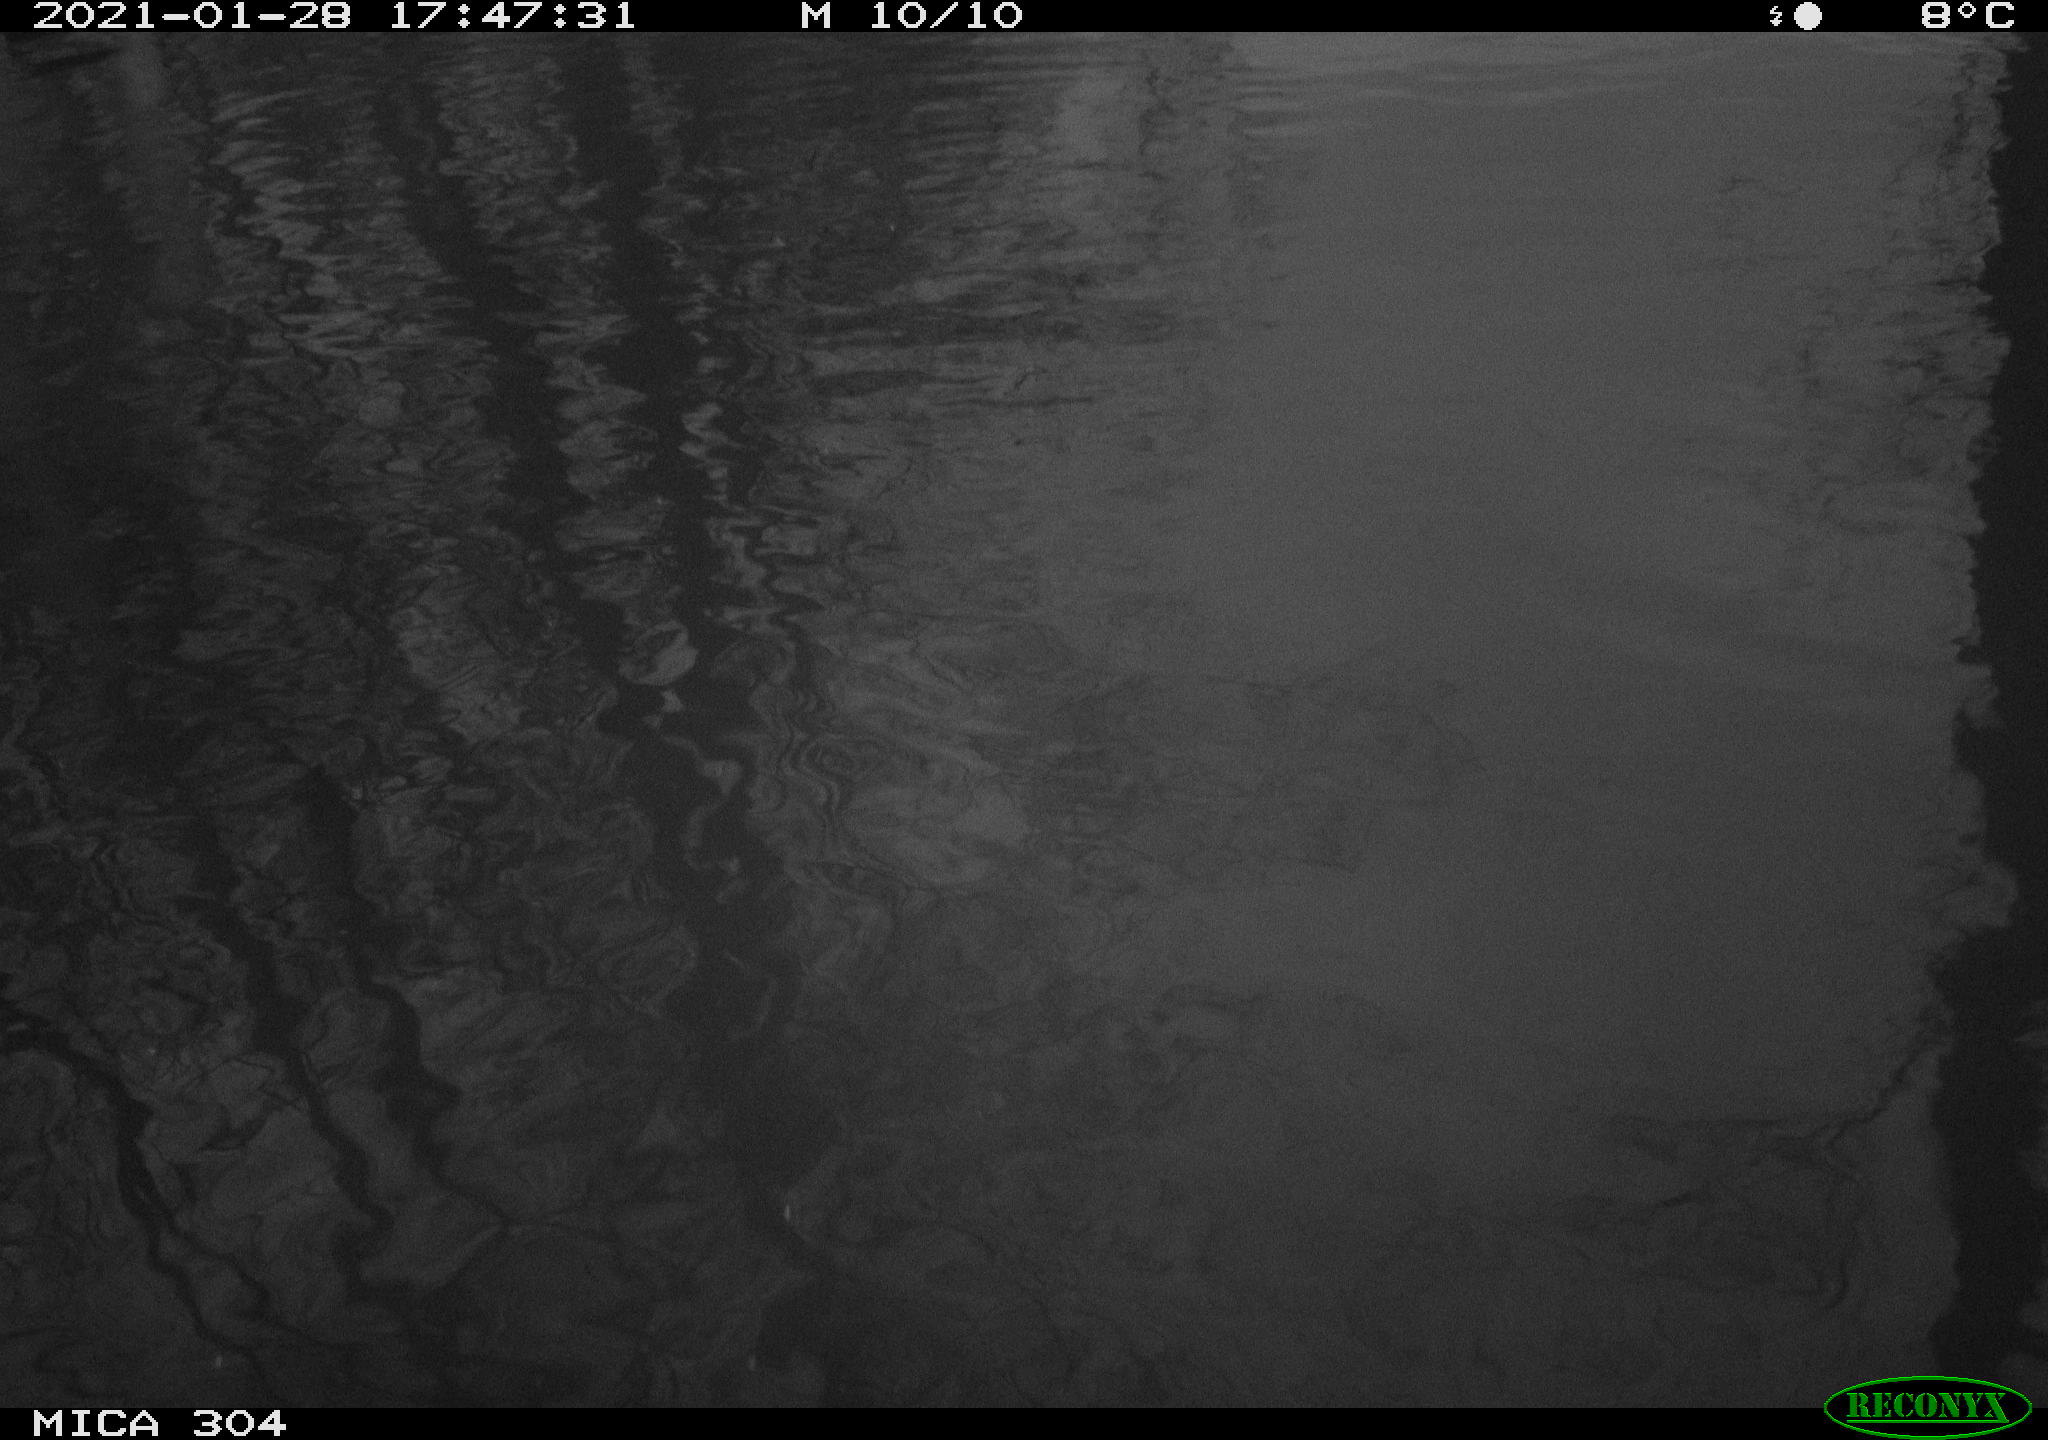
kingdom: Animalia
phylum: Chordata
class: Aves
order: Gruiformes
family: Rallidae
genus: Fulica
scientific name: Fulica atra
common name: Eurasian coot
